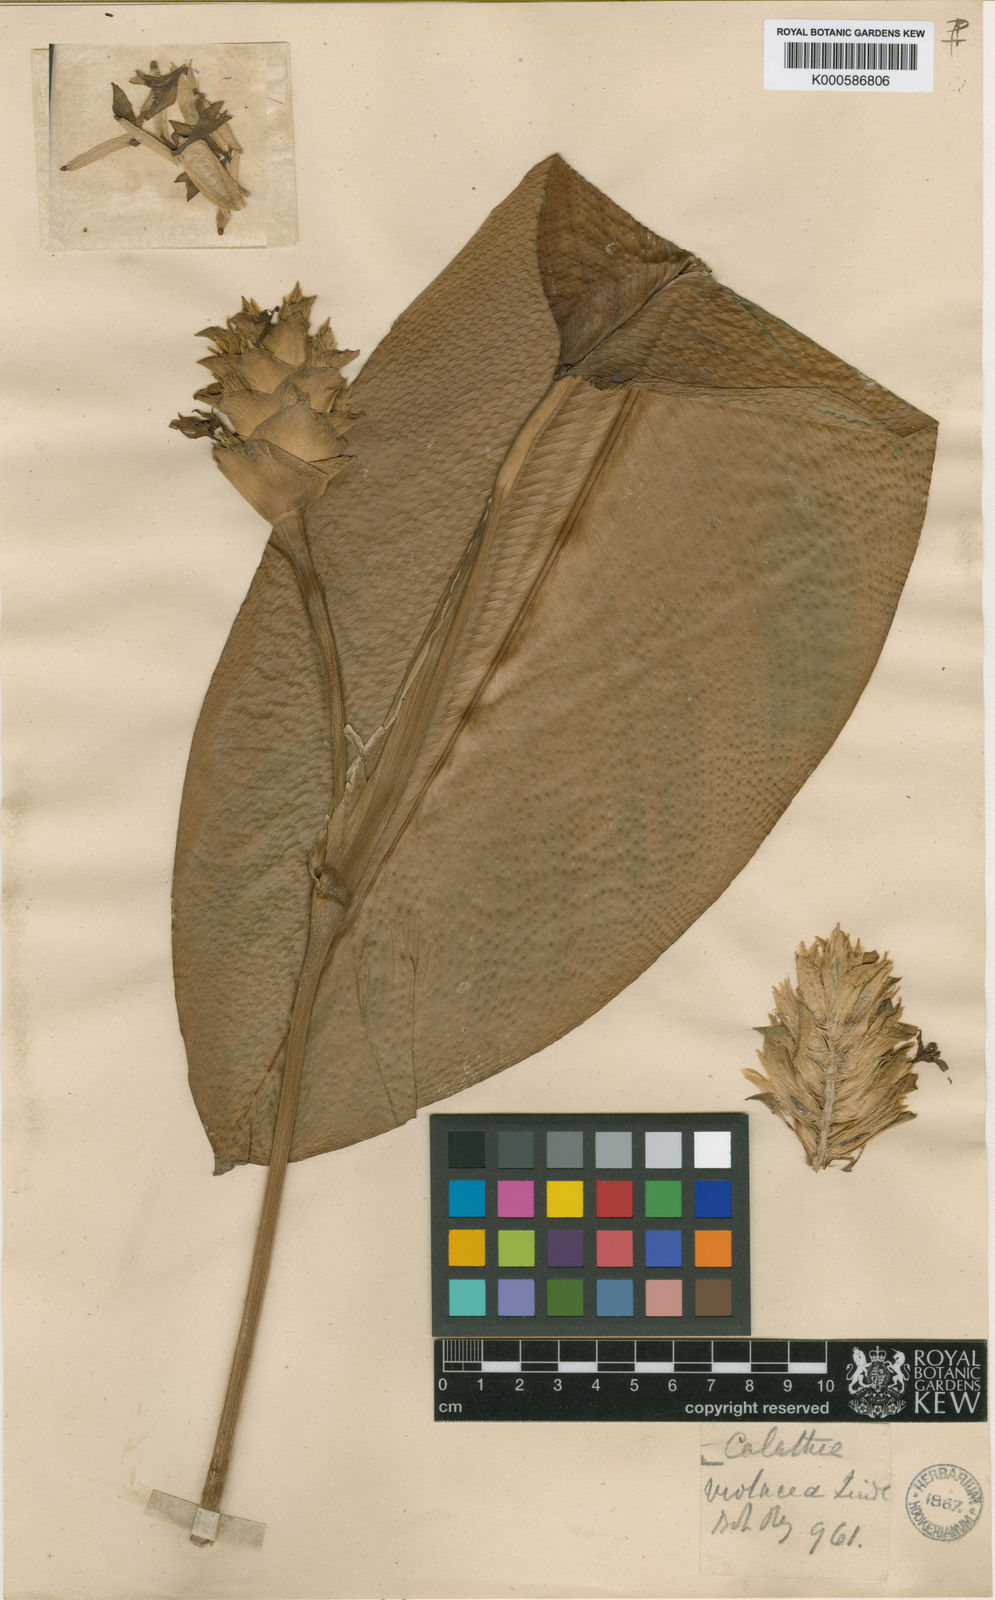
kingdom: Plantae
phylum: Tracheophyta
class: Liliopsida
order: Zingiberales
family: Marantaceae
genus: Goeppertia
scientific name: Goeppertia violacea
